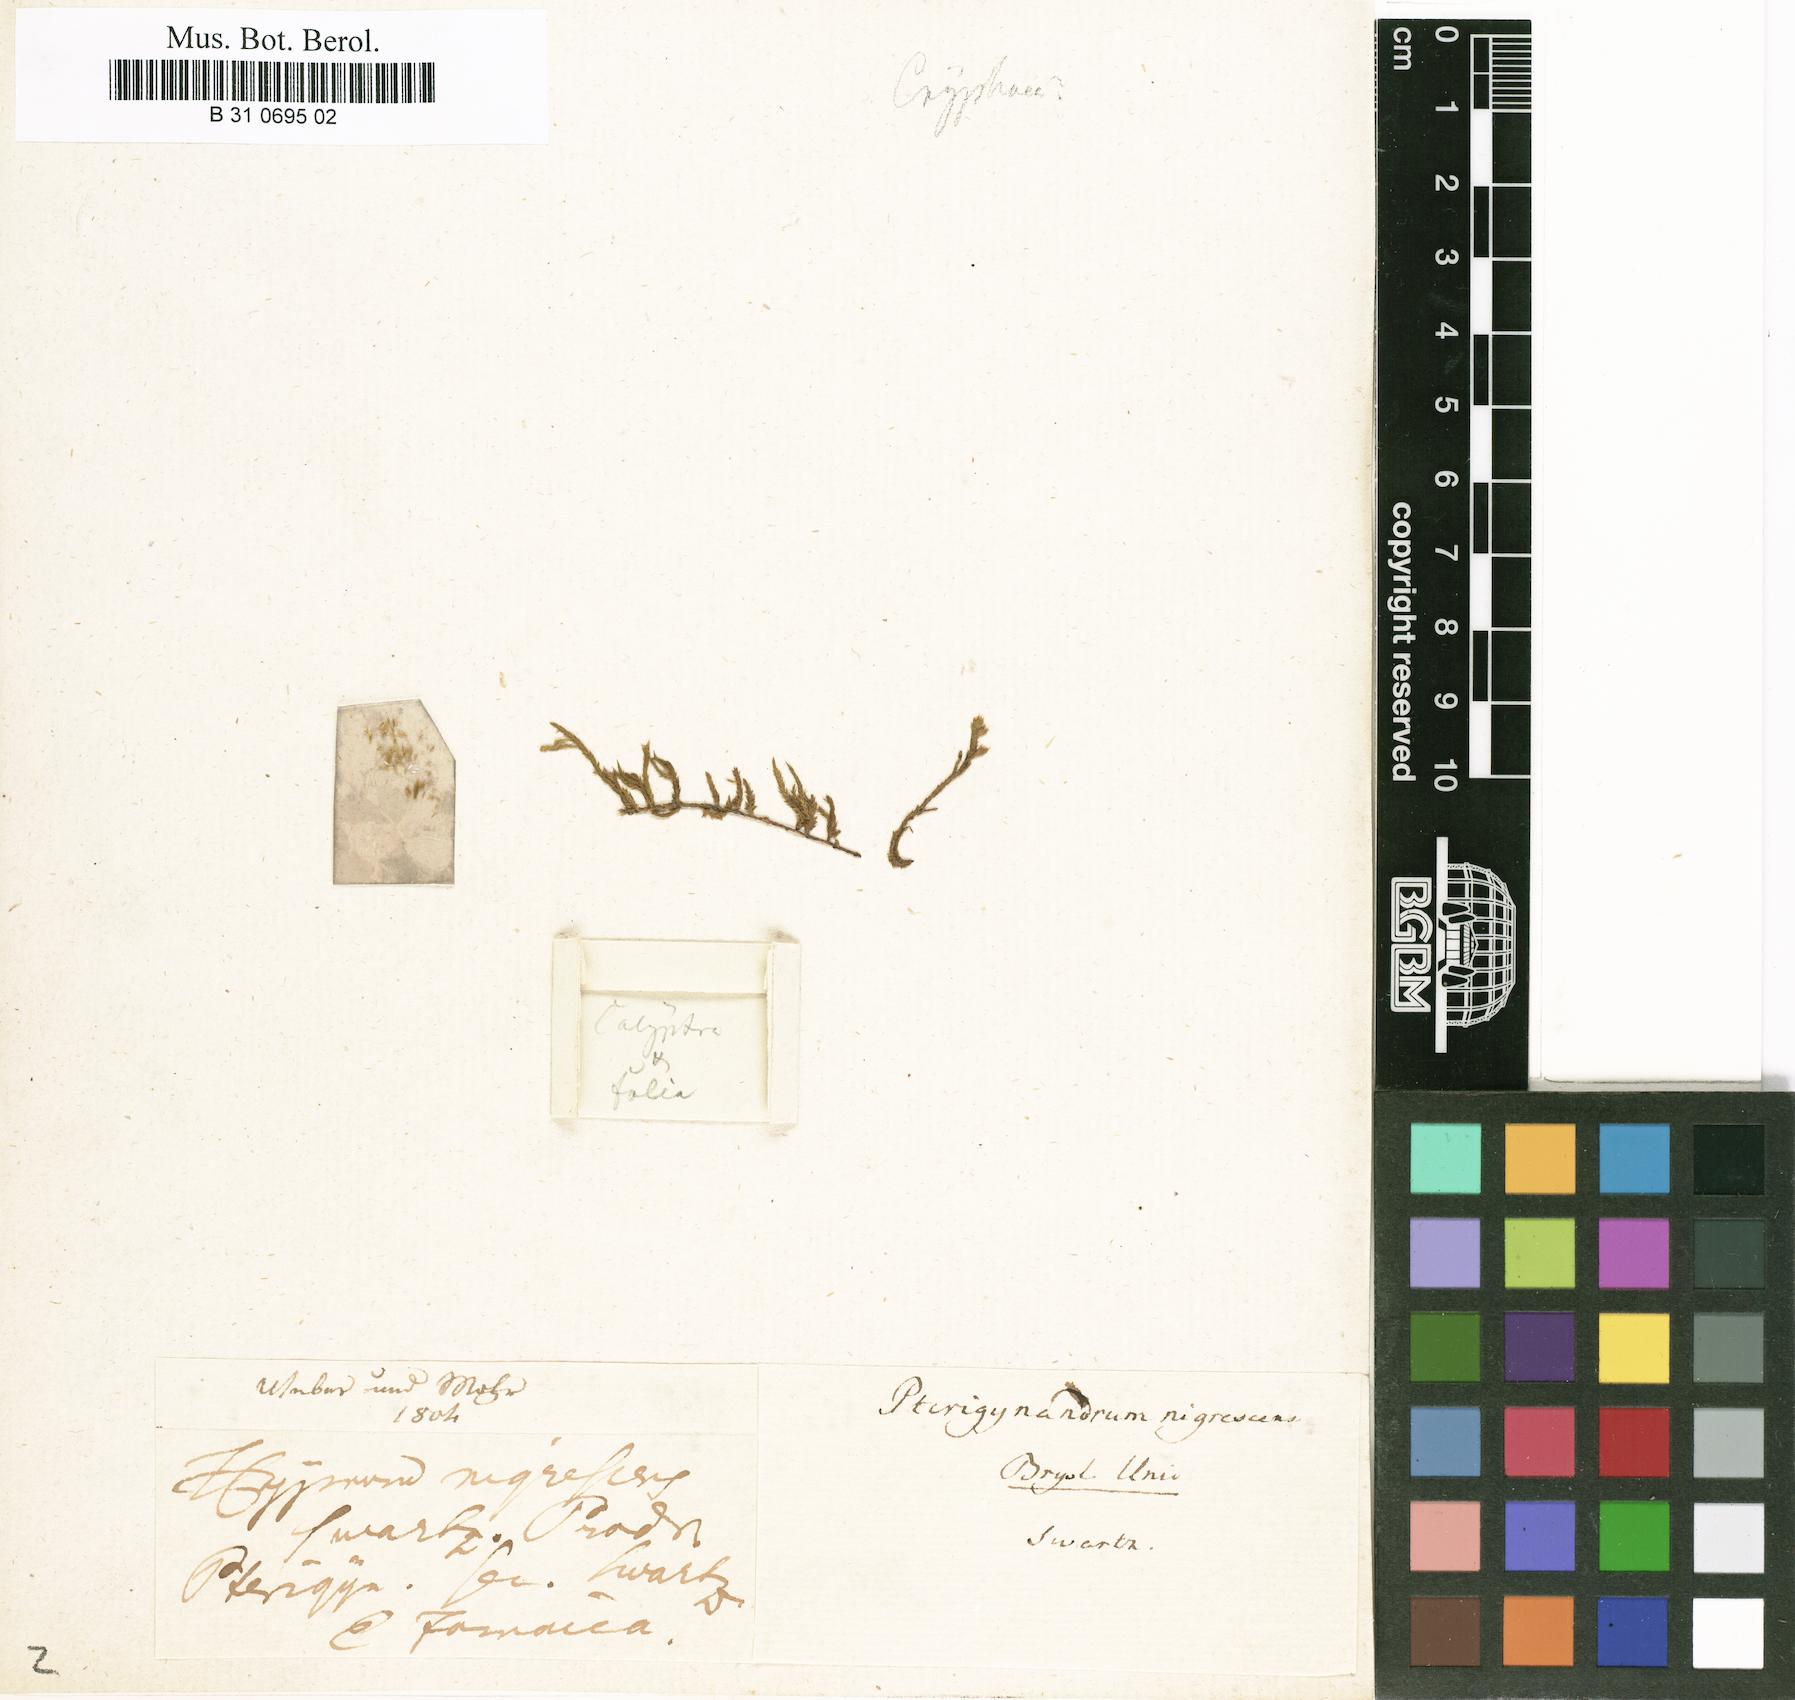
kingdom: Plantae
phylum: Bryophyta
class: Bryopsida
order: Hypnales
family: Meteoriaceae
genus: Meteorium
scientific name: Meteorium nigrescens
